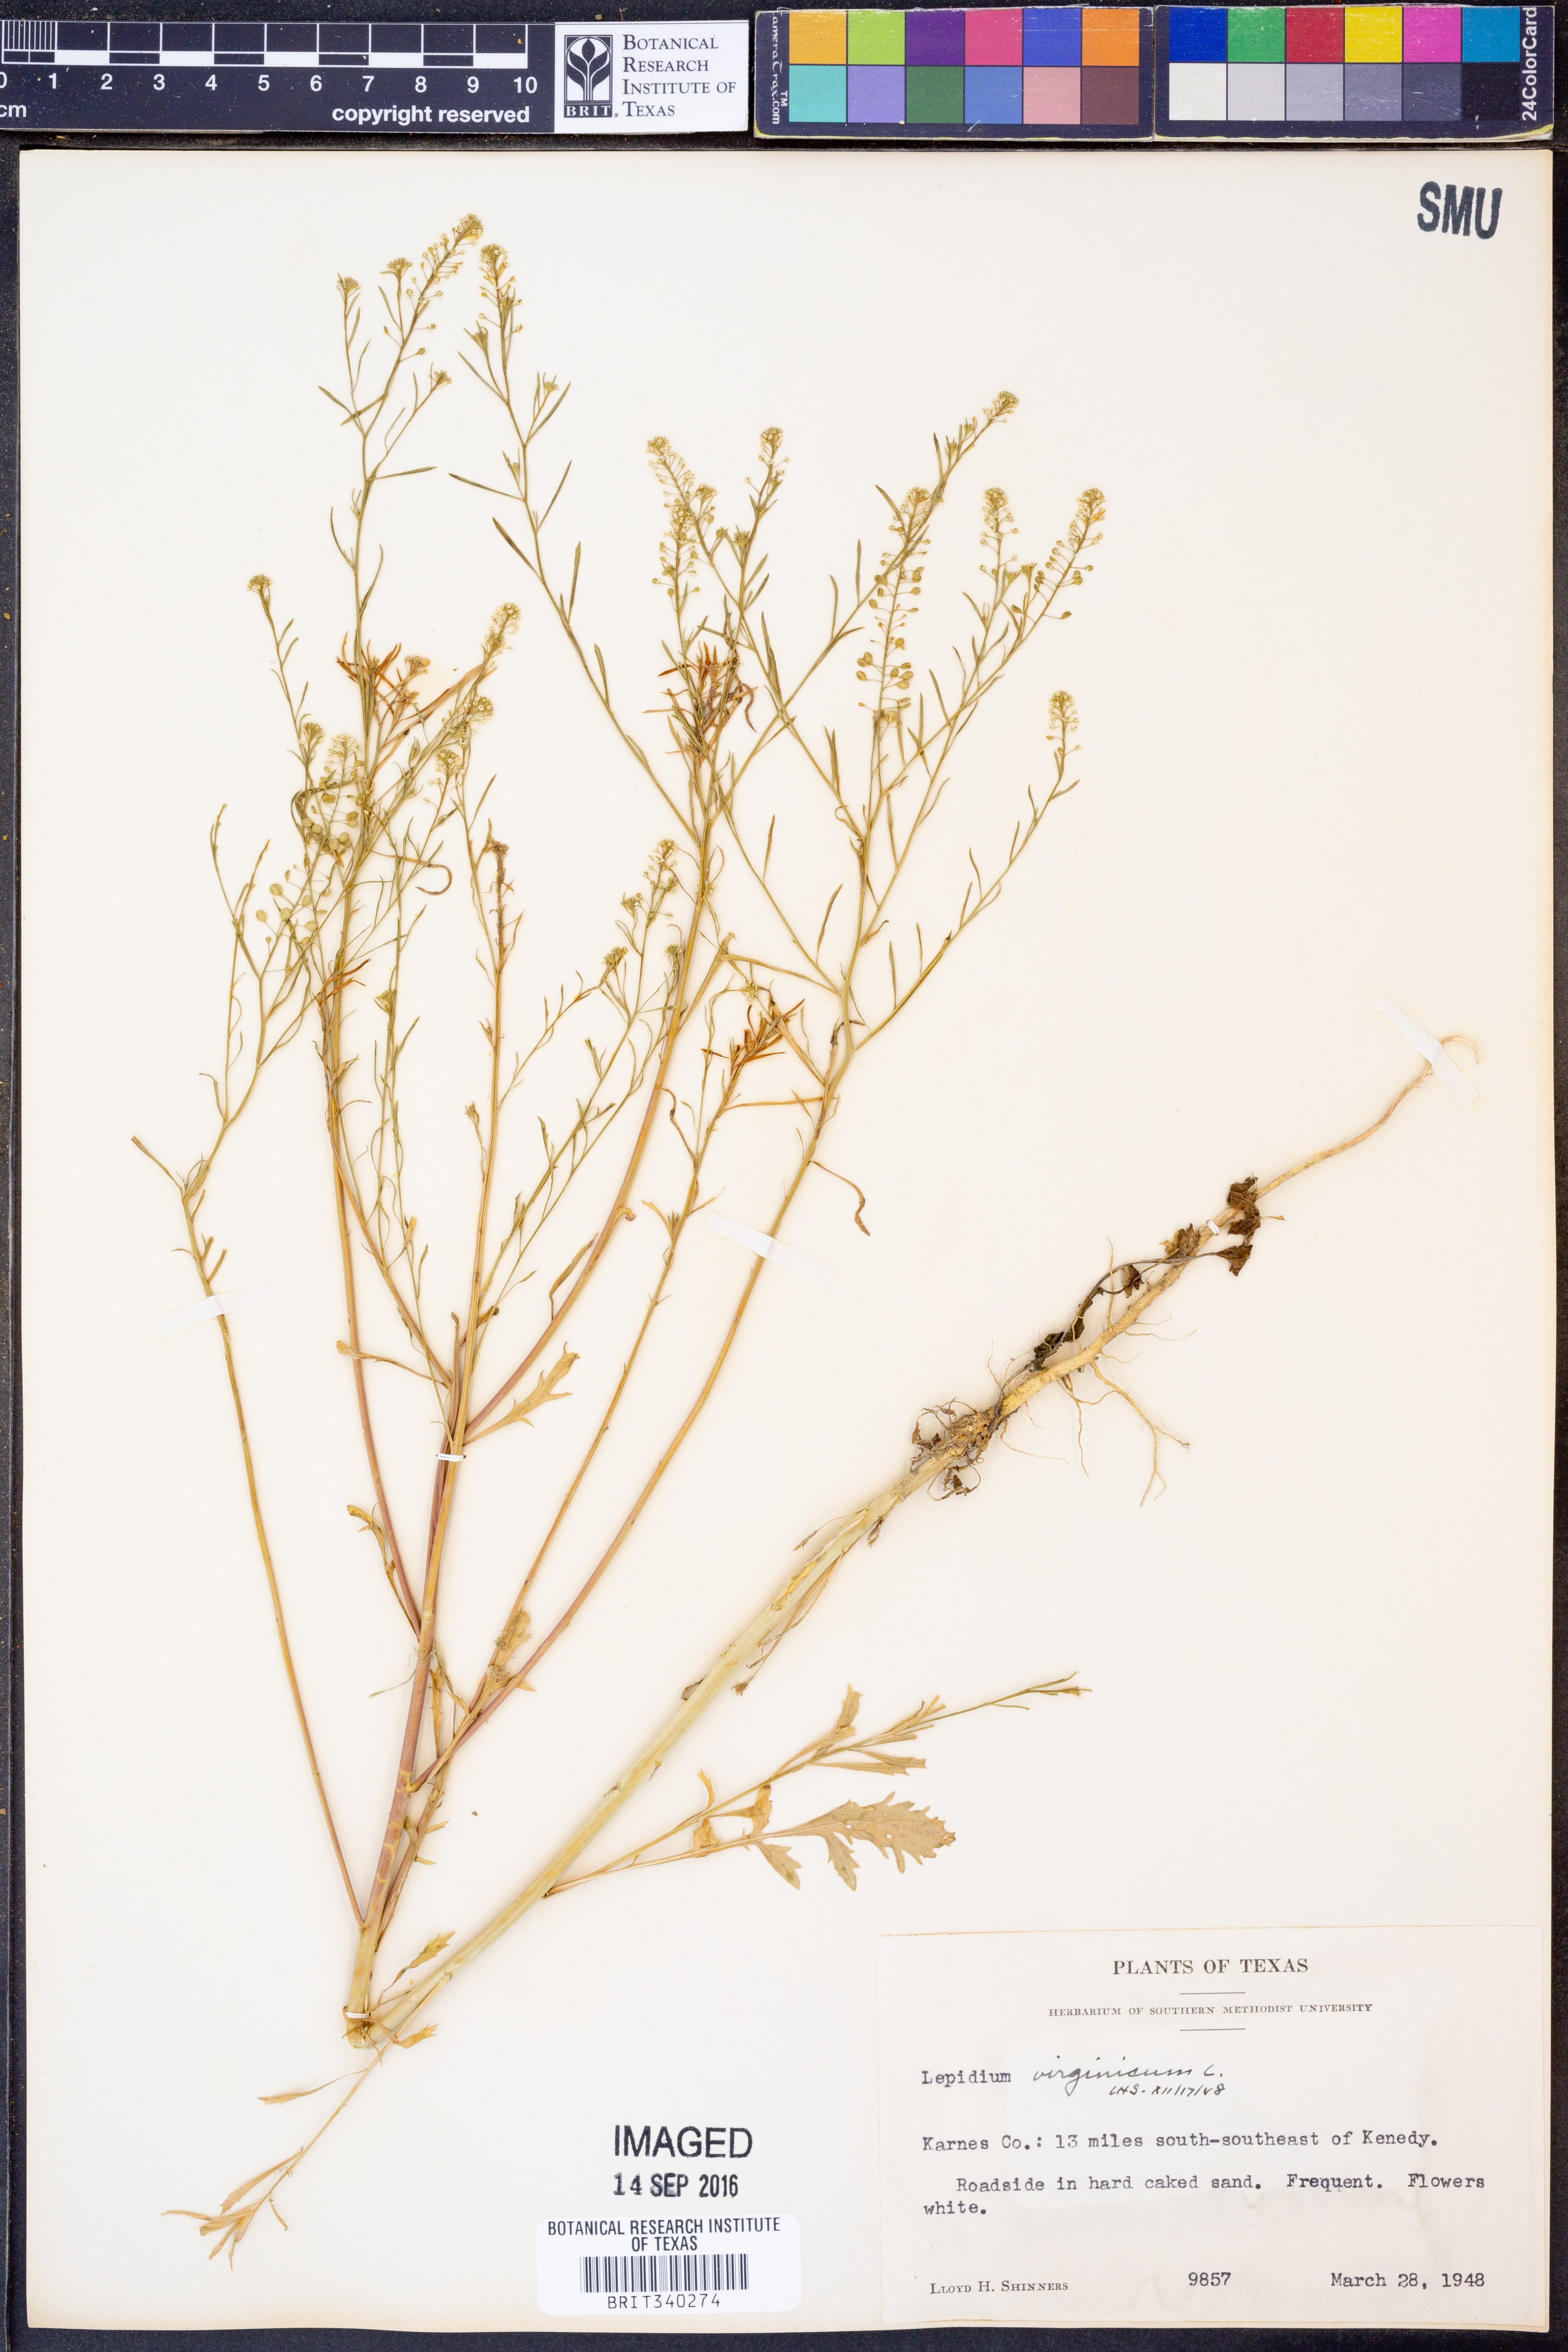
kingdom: Plantae
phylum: Tracheophyta
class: Magnoliopsida
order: Brassicales
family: Brassicaceae
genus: Lepidium
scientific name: Lepidium virginicum
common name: Least pepperwort
